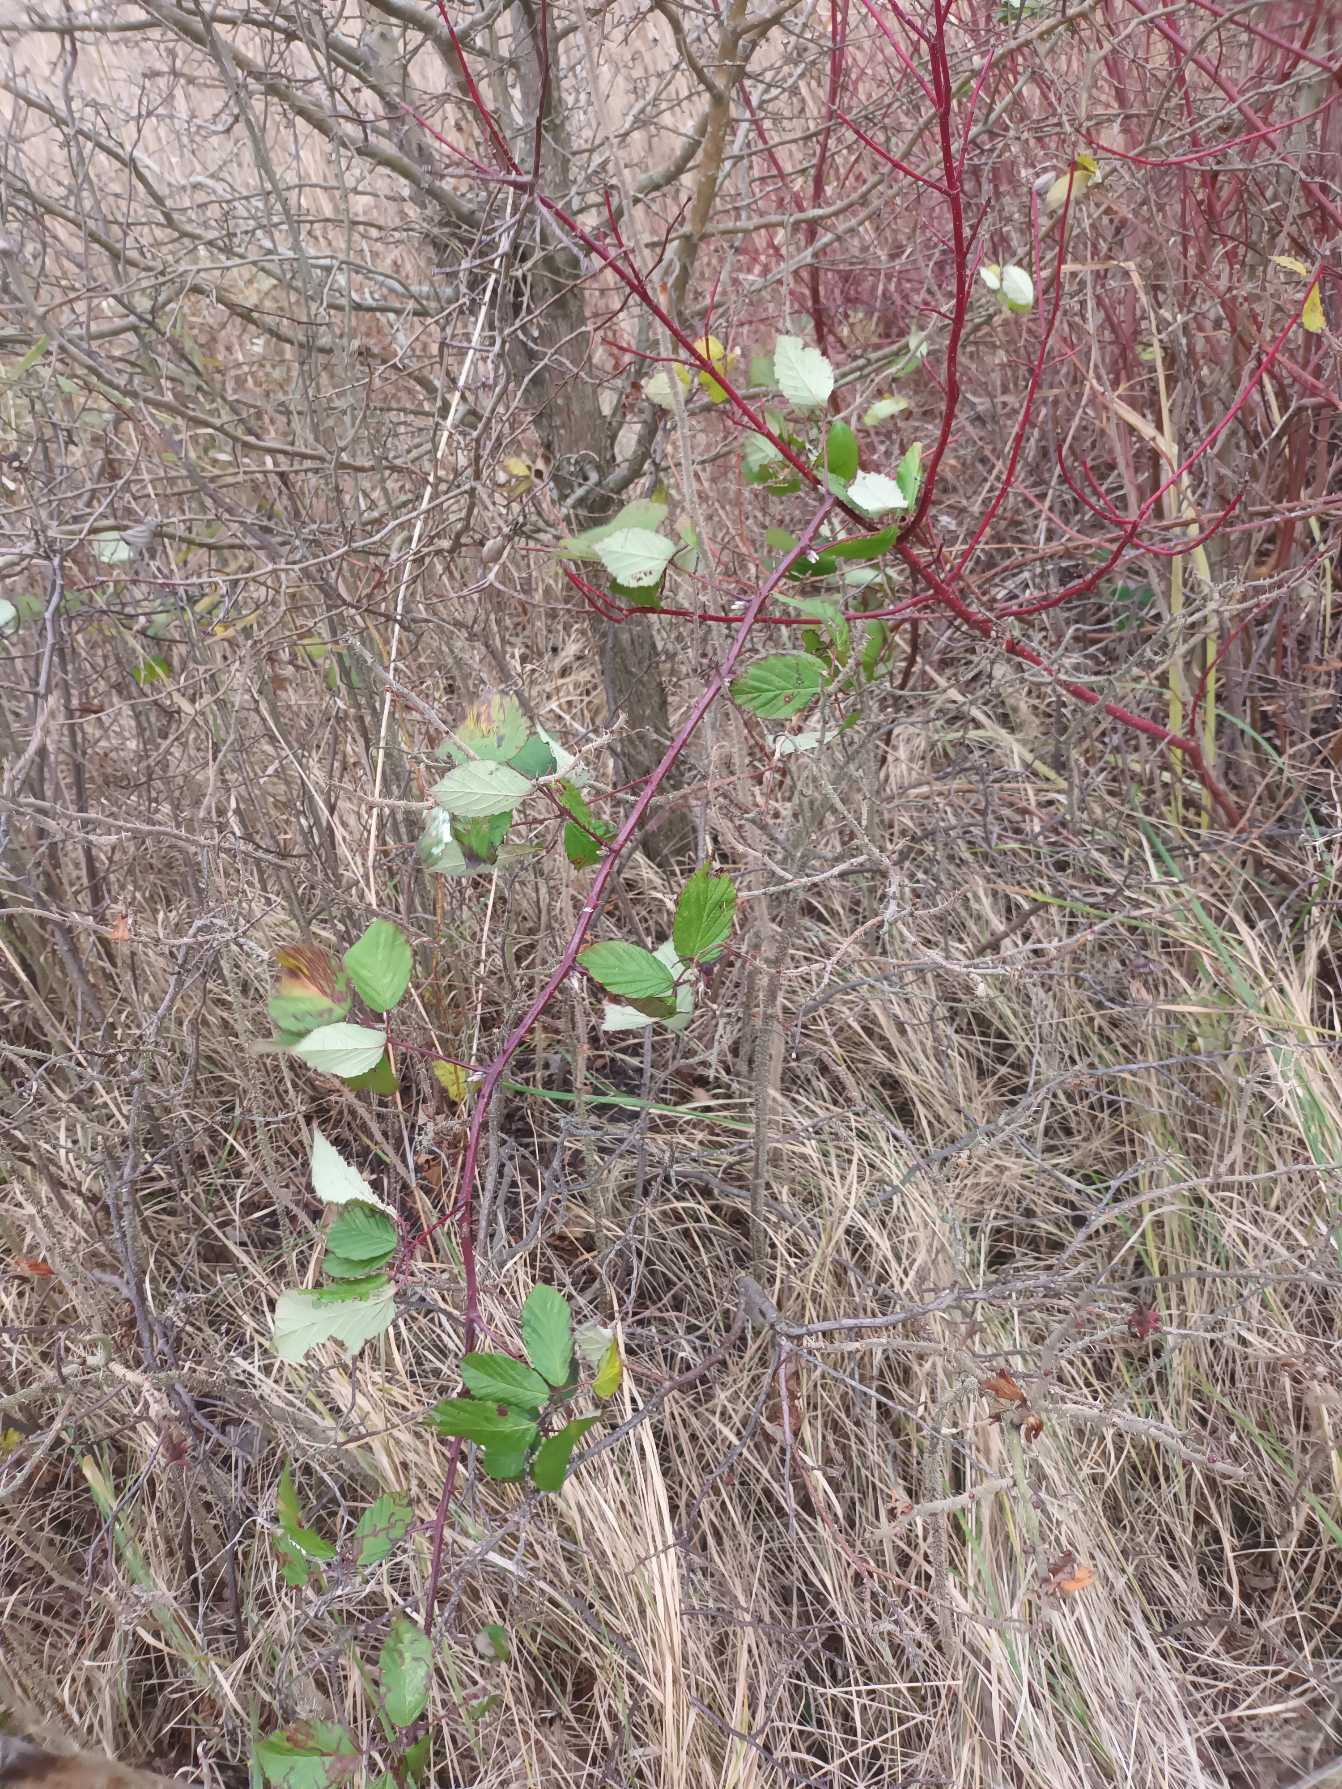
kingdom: Plantae
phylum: Tracheophyta
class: Magnoliopsida
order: Rosales
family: Rosaceae
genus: Rubus
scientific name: Rubus armeniacus
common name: Armensk brombær
